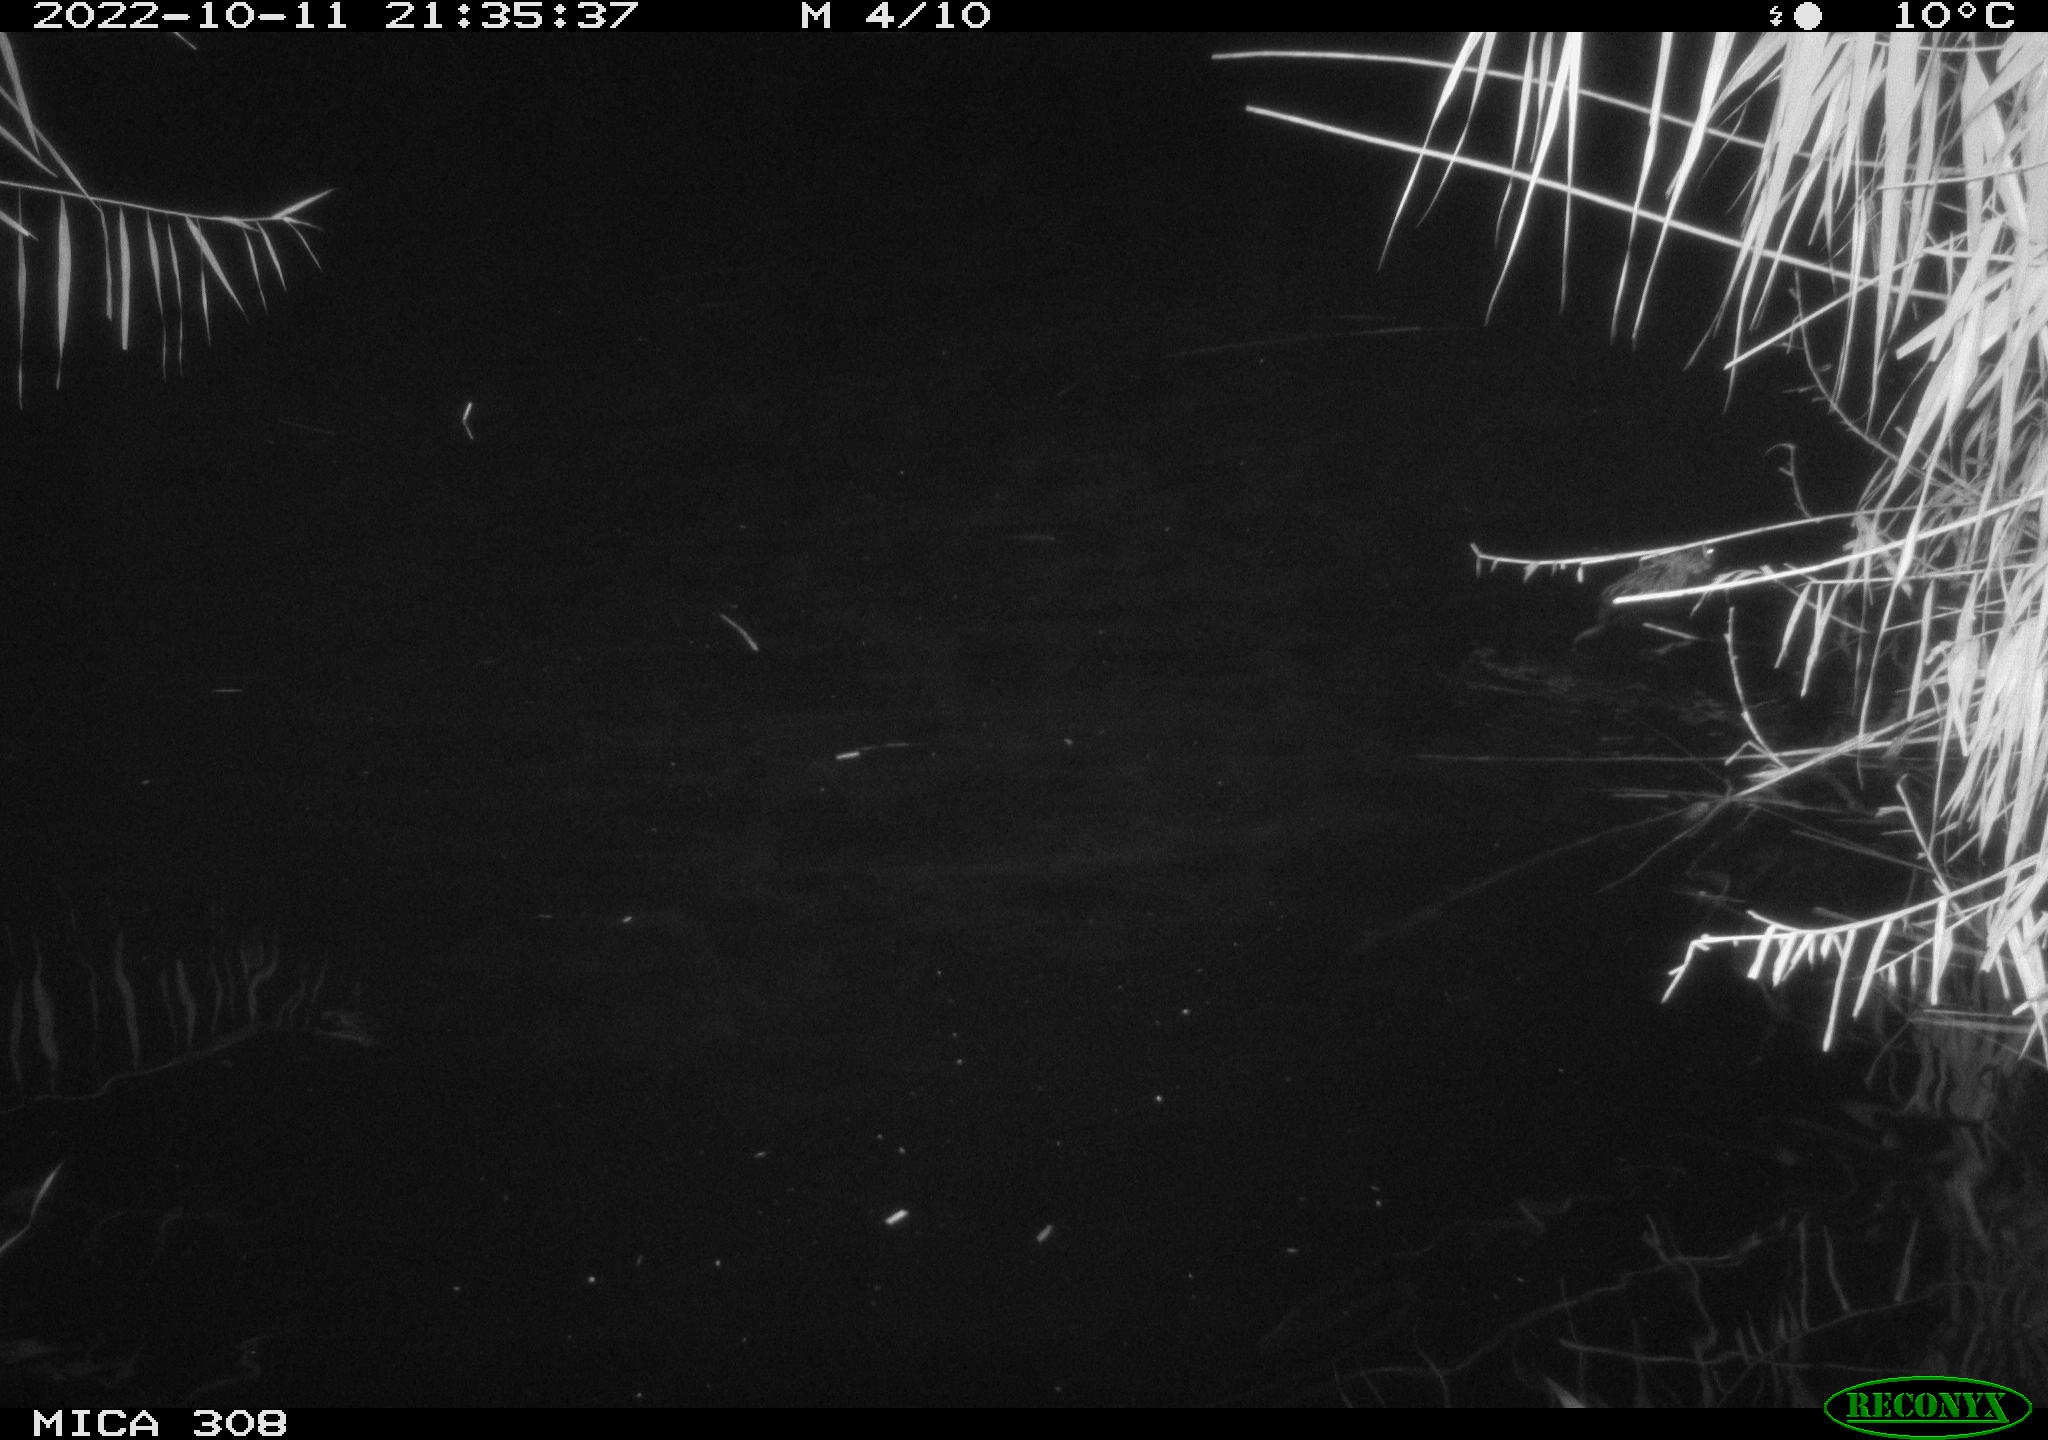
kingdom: Animalia
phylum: Chordata
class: Mammalia
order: Rodentia
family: Cricetidae
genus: Ondatra
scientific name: Ondatra zibethicus
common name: Muskrat
